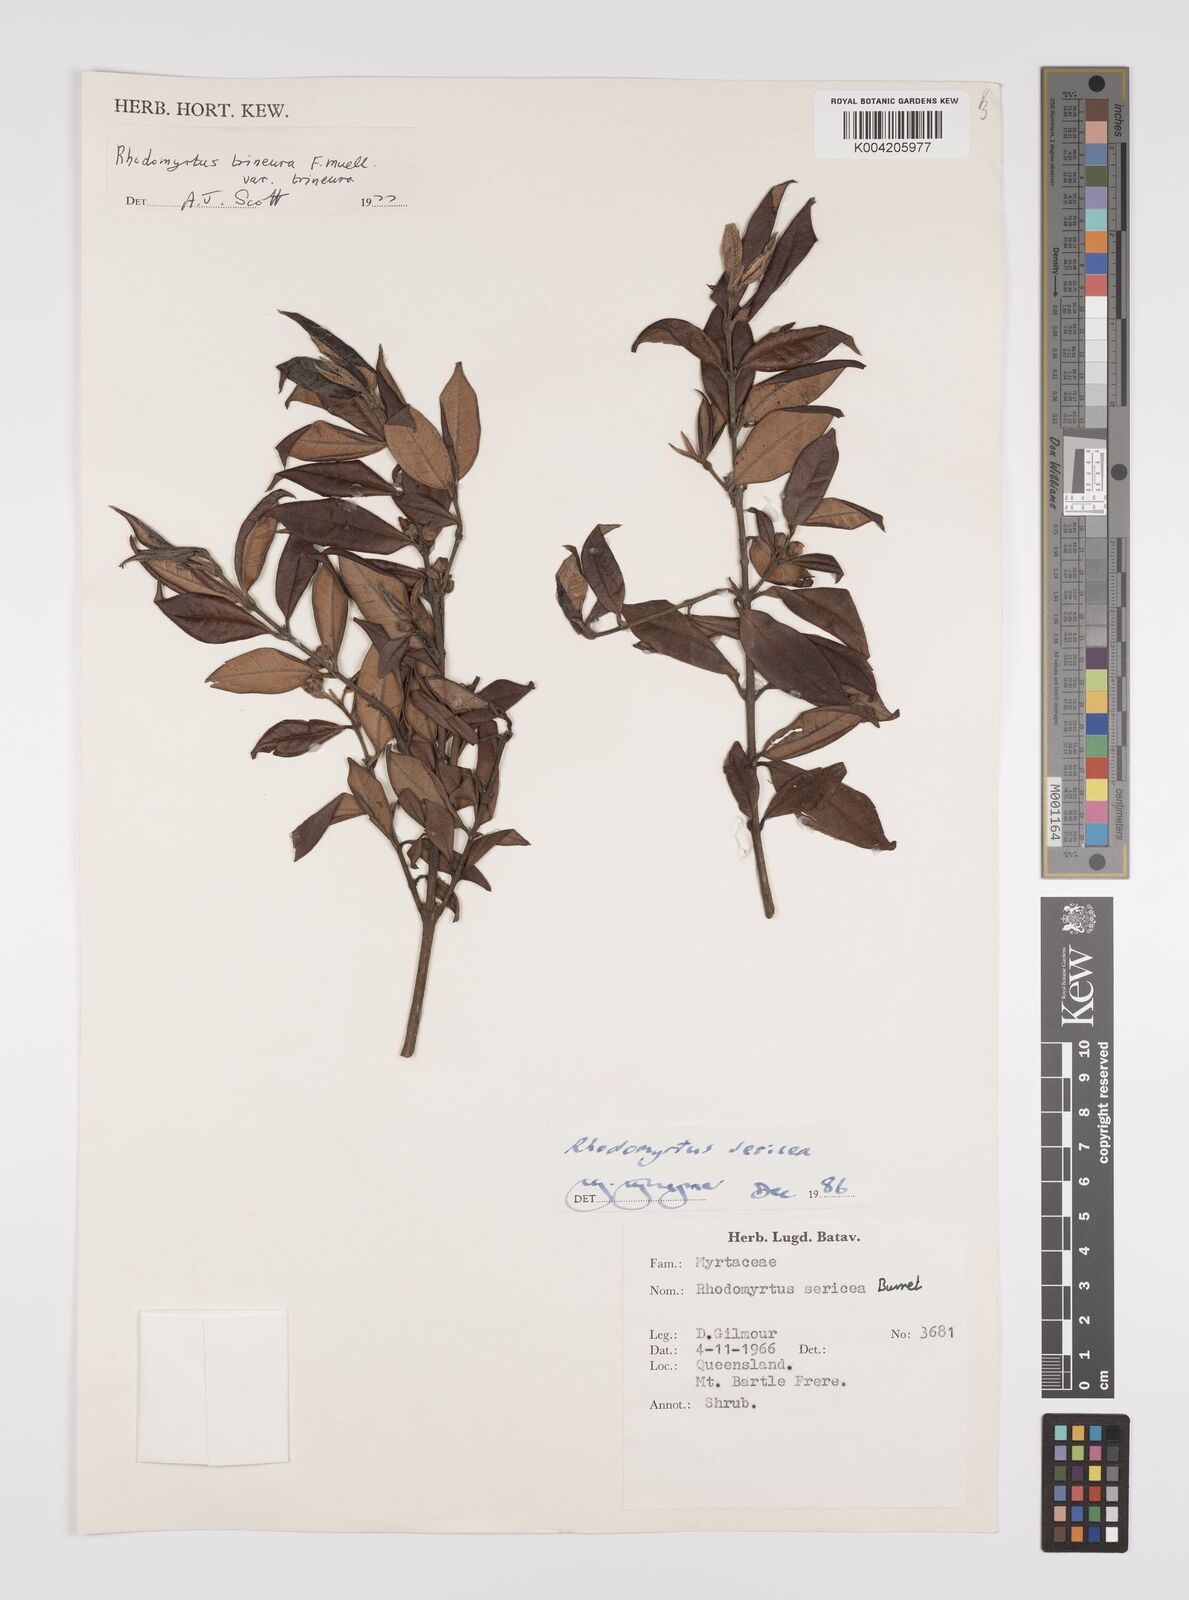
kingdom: Plantae
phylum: Tracheophyta
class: Magnoliopsida
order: Myrtales
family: Myrtaceae
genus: Rhodomyrtus
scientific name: Rhodomyrtus sericea
